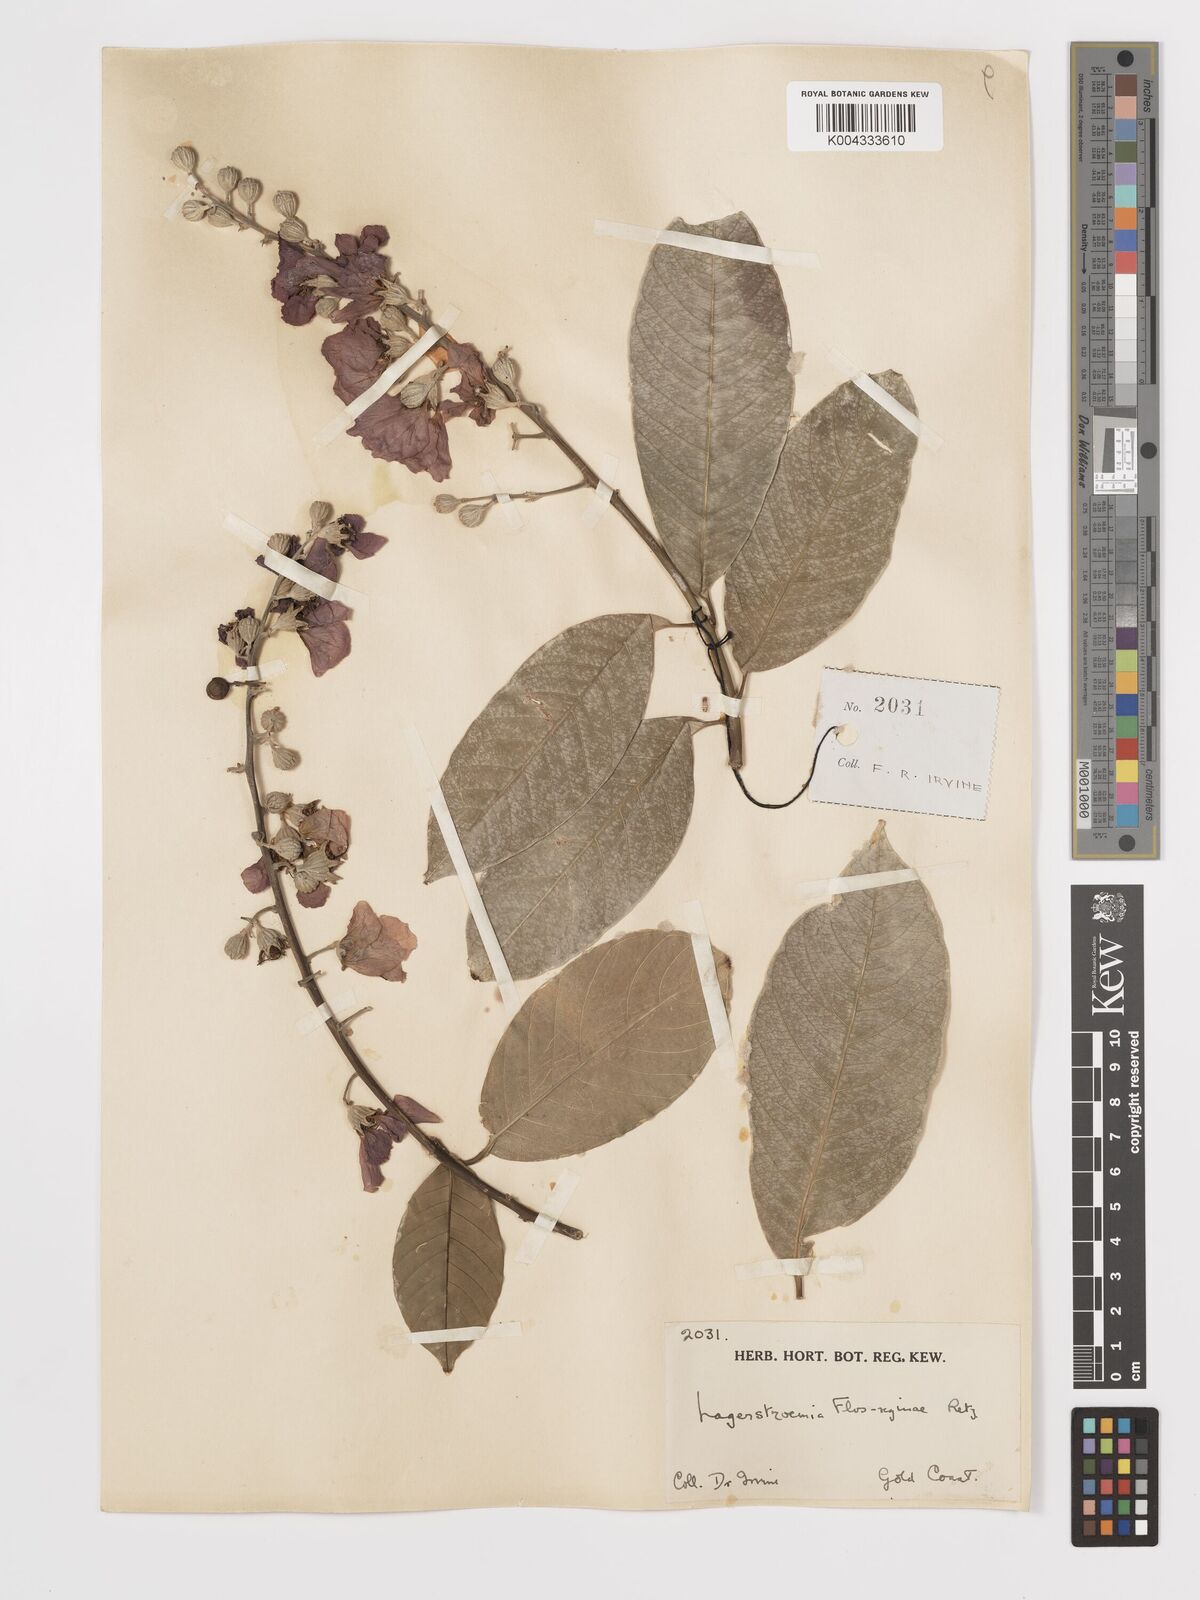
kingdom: Plantae
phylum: Tracheophyta
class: Magnoliopsida
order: Myrtales
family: Lythraceae
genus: Lagerstroemia
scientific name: Lagerstroemia speciosa
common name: Queen's crape-myrtle
